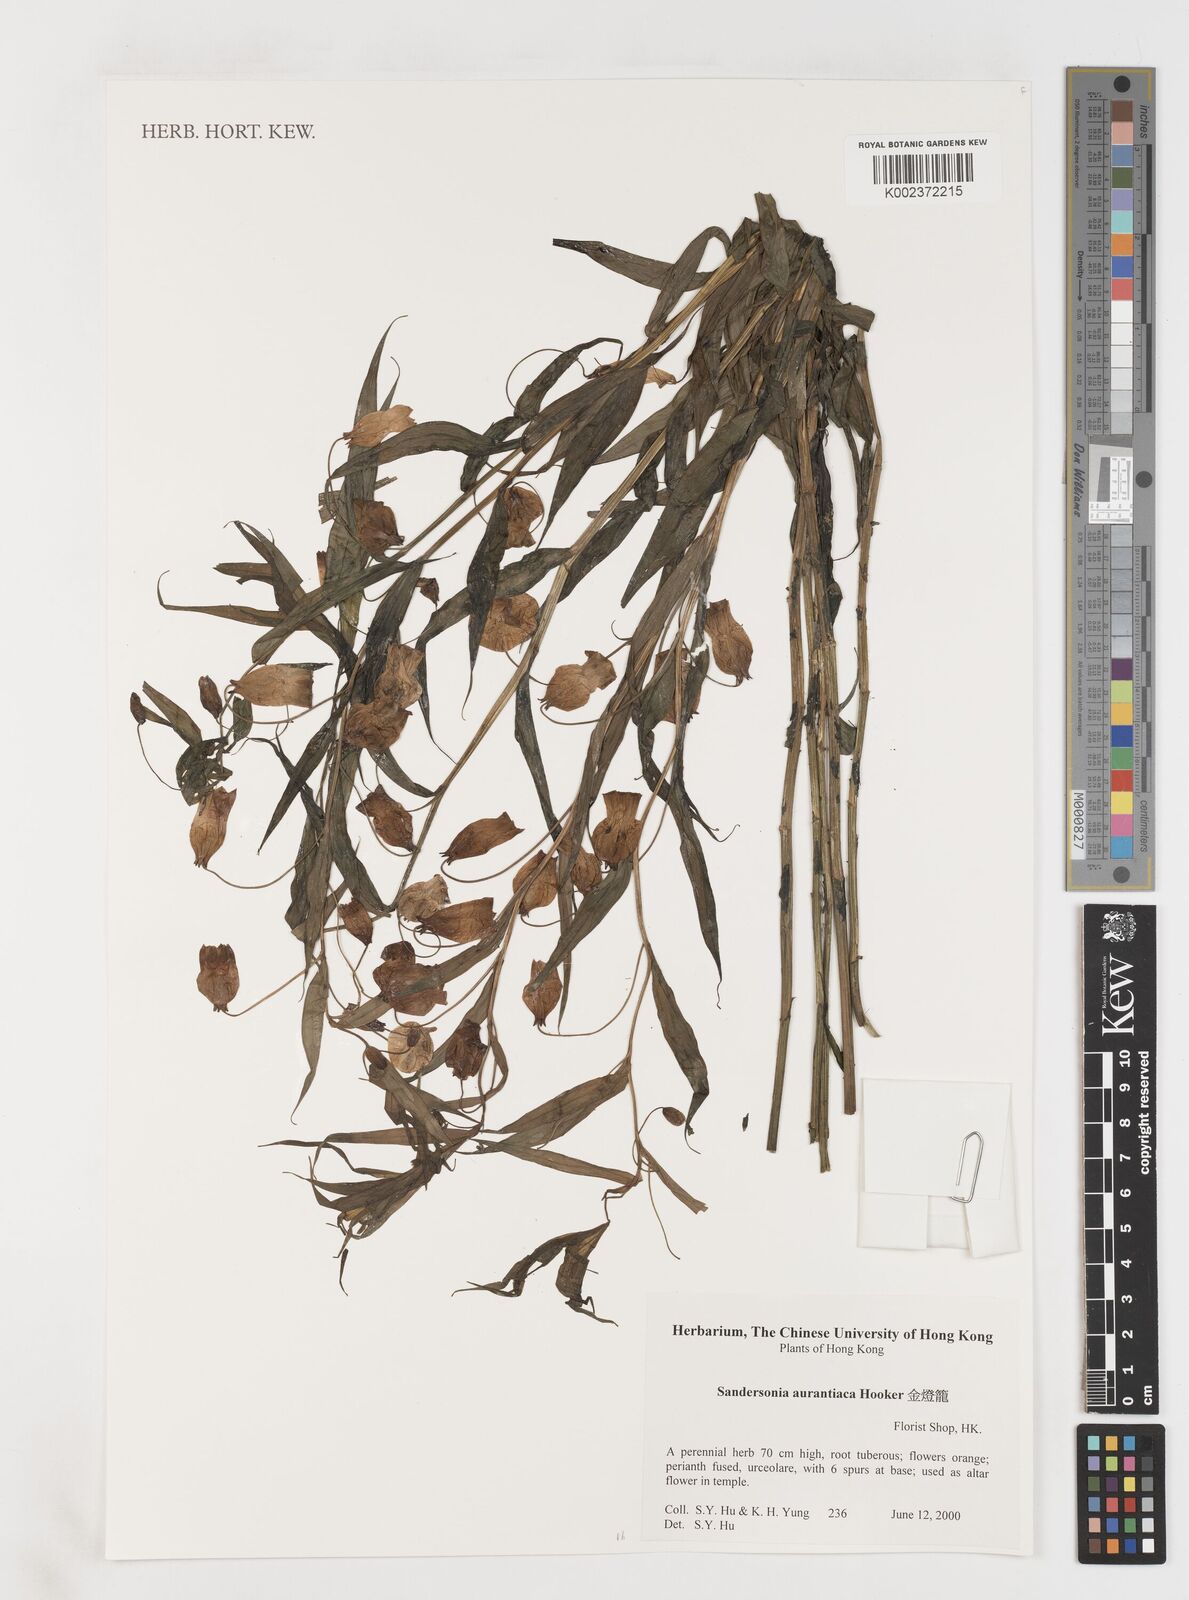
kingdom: Plantae
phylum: Tracheophyta
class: Liliopsida
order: Liliales
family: Colchicaceae
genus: Sandersonia
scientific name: Sandersonia aurantiaca
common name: Chinese-lantern-lily
